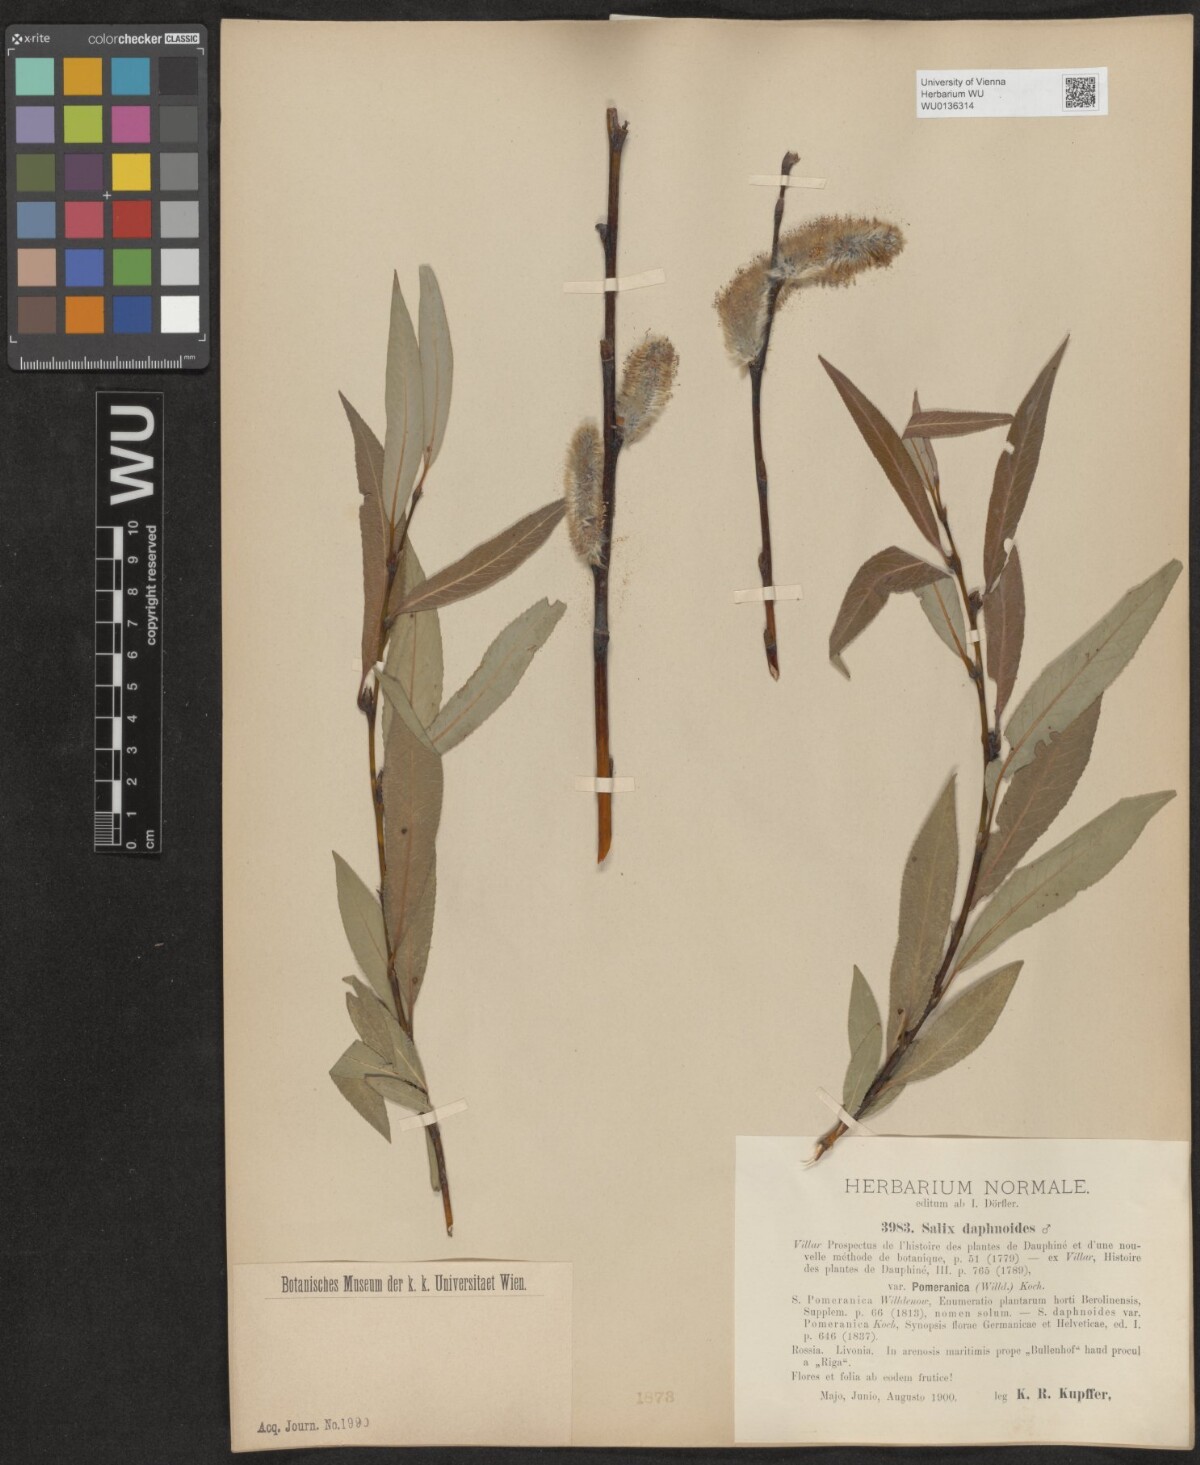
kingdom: Plantae
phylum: Tracheophyta
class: Magnoliopsida
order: Malpighiales
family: Salicaceae
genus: Salix
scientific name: Salix daphnoides
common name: European violet-willow
